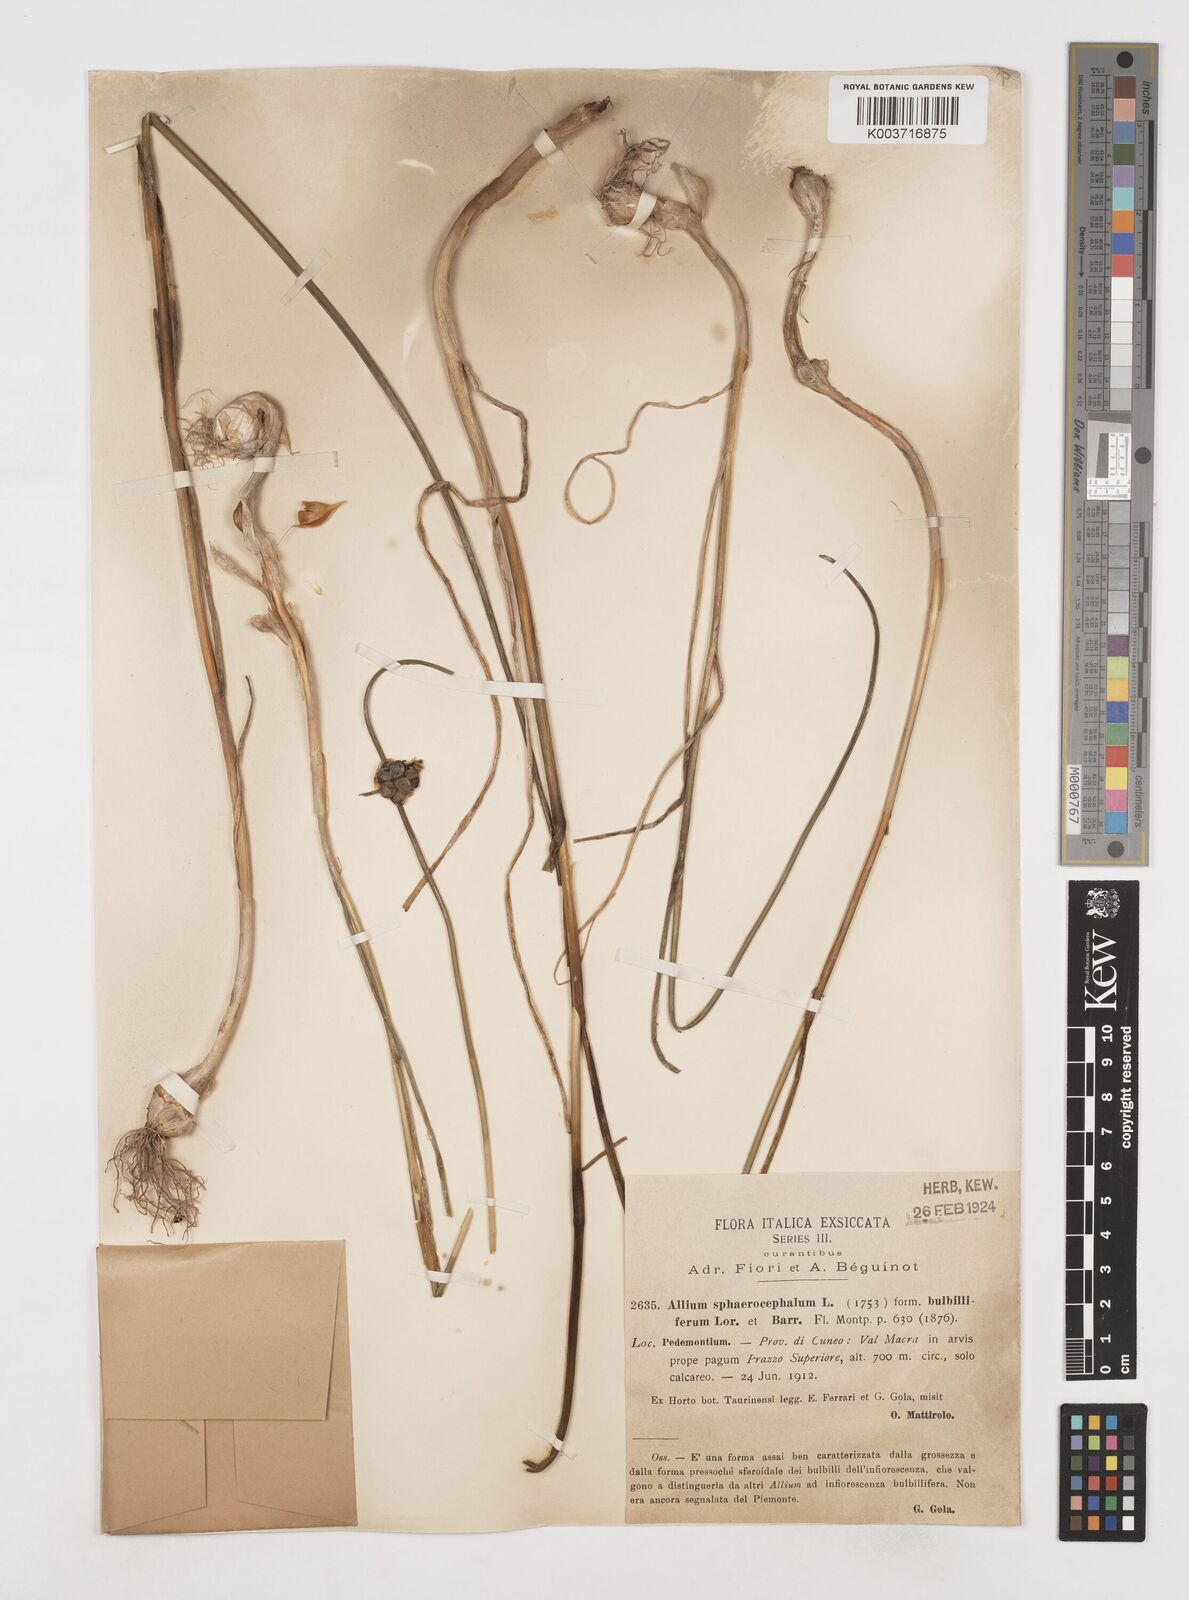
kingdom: Plantae
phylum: Tracheophyta
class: Liliopsida
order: Asparagales
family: Amaryllidaceae
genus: Allium
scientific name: Allium sphaerocephalon
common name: Round-headed leek
